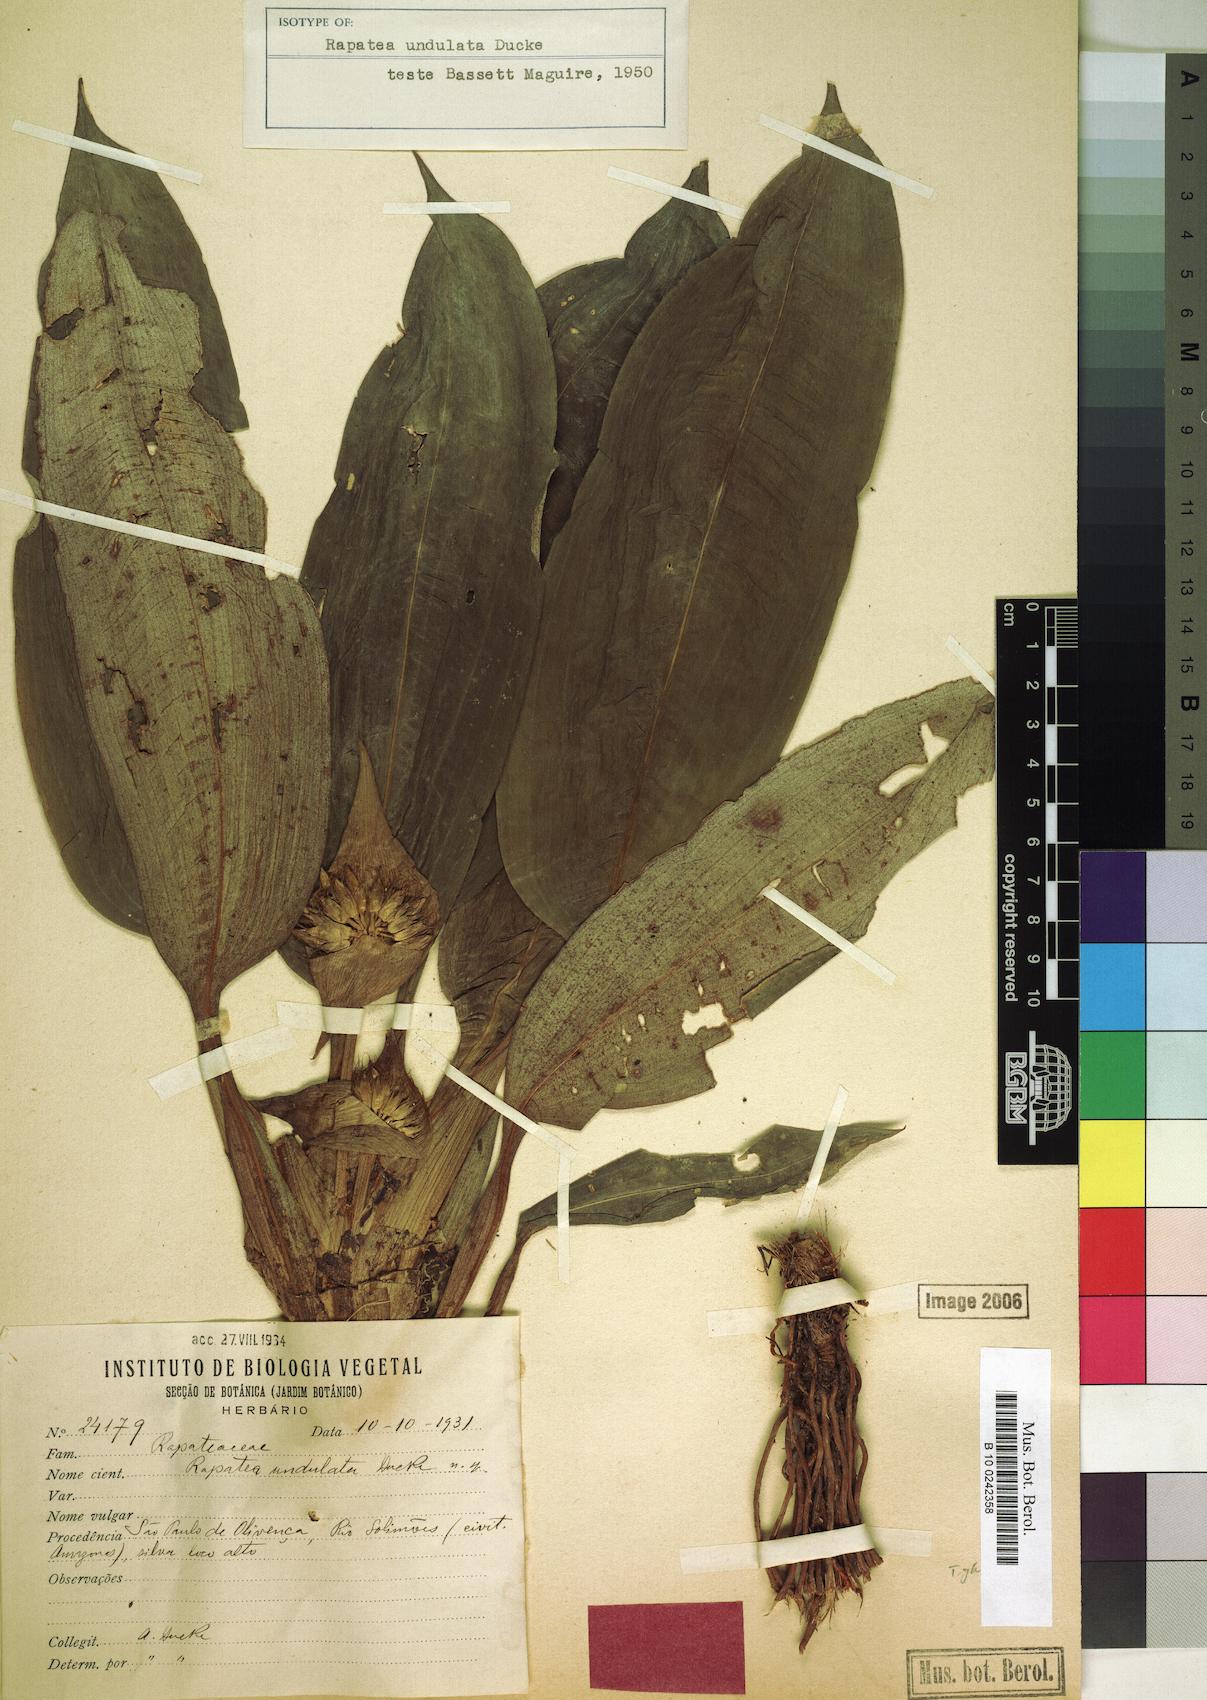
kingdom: Plantae
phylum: Tracheophyta
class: Liliopsida
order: Poales
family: Rapateaceae
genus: Rapatea
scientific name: Rapatea undulata
